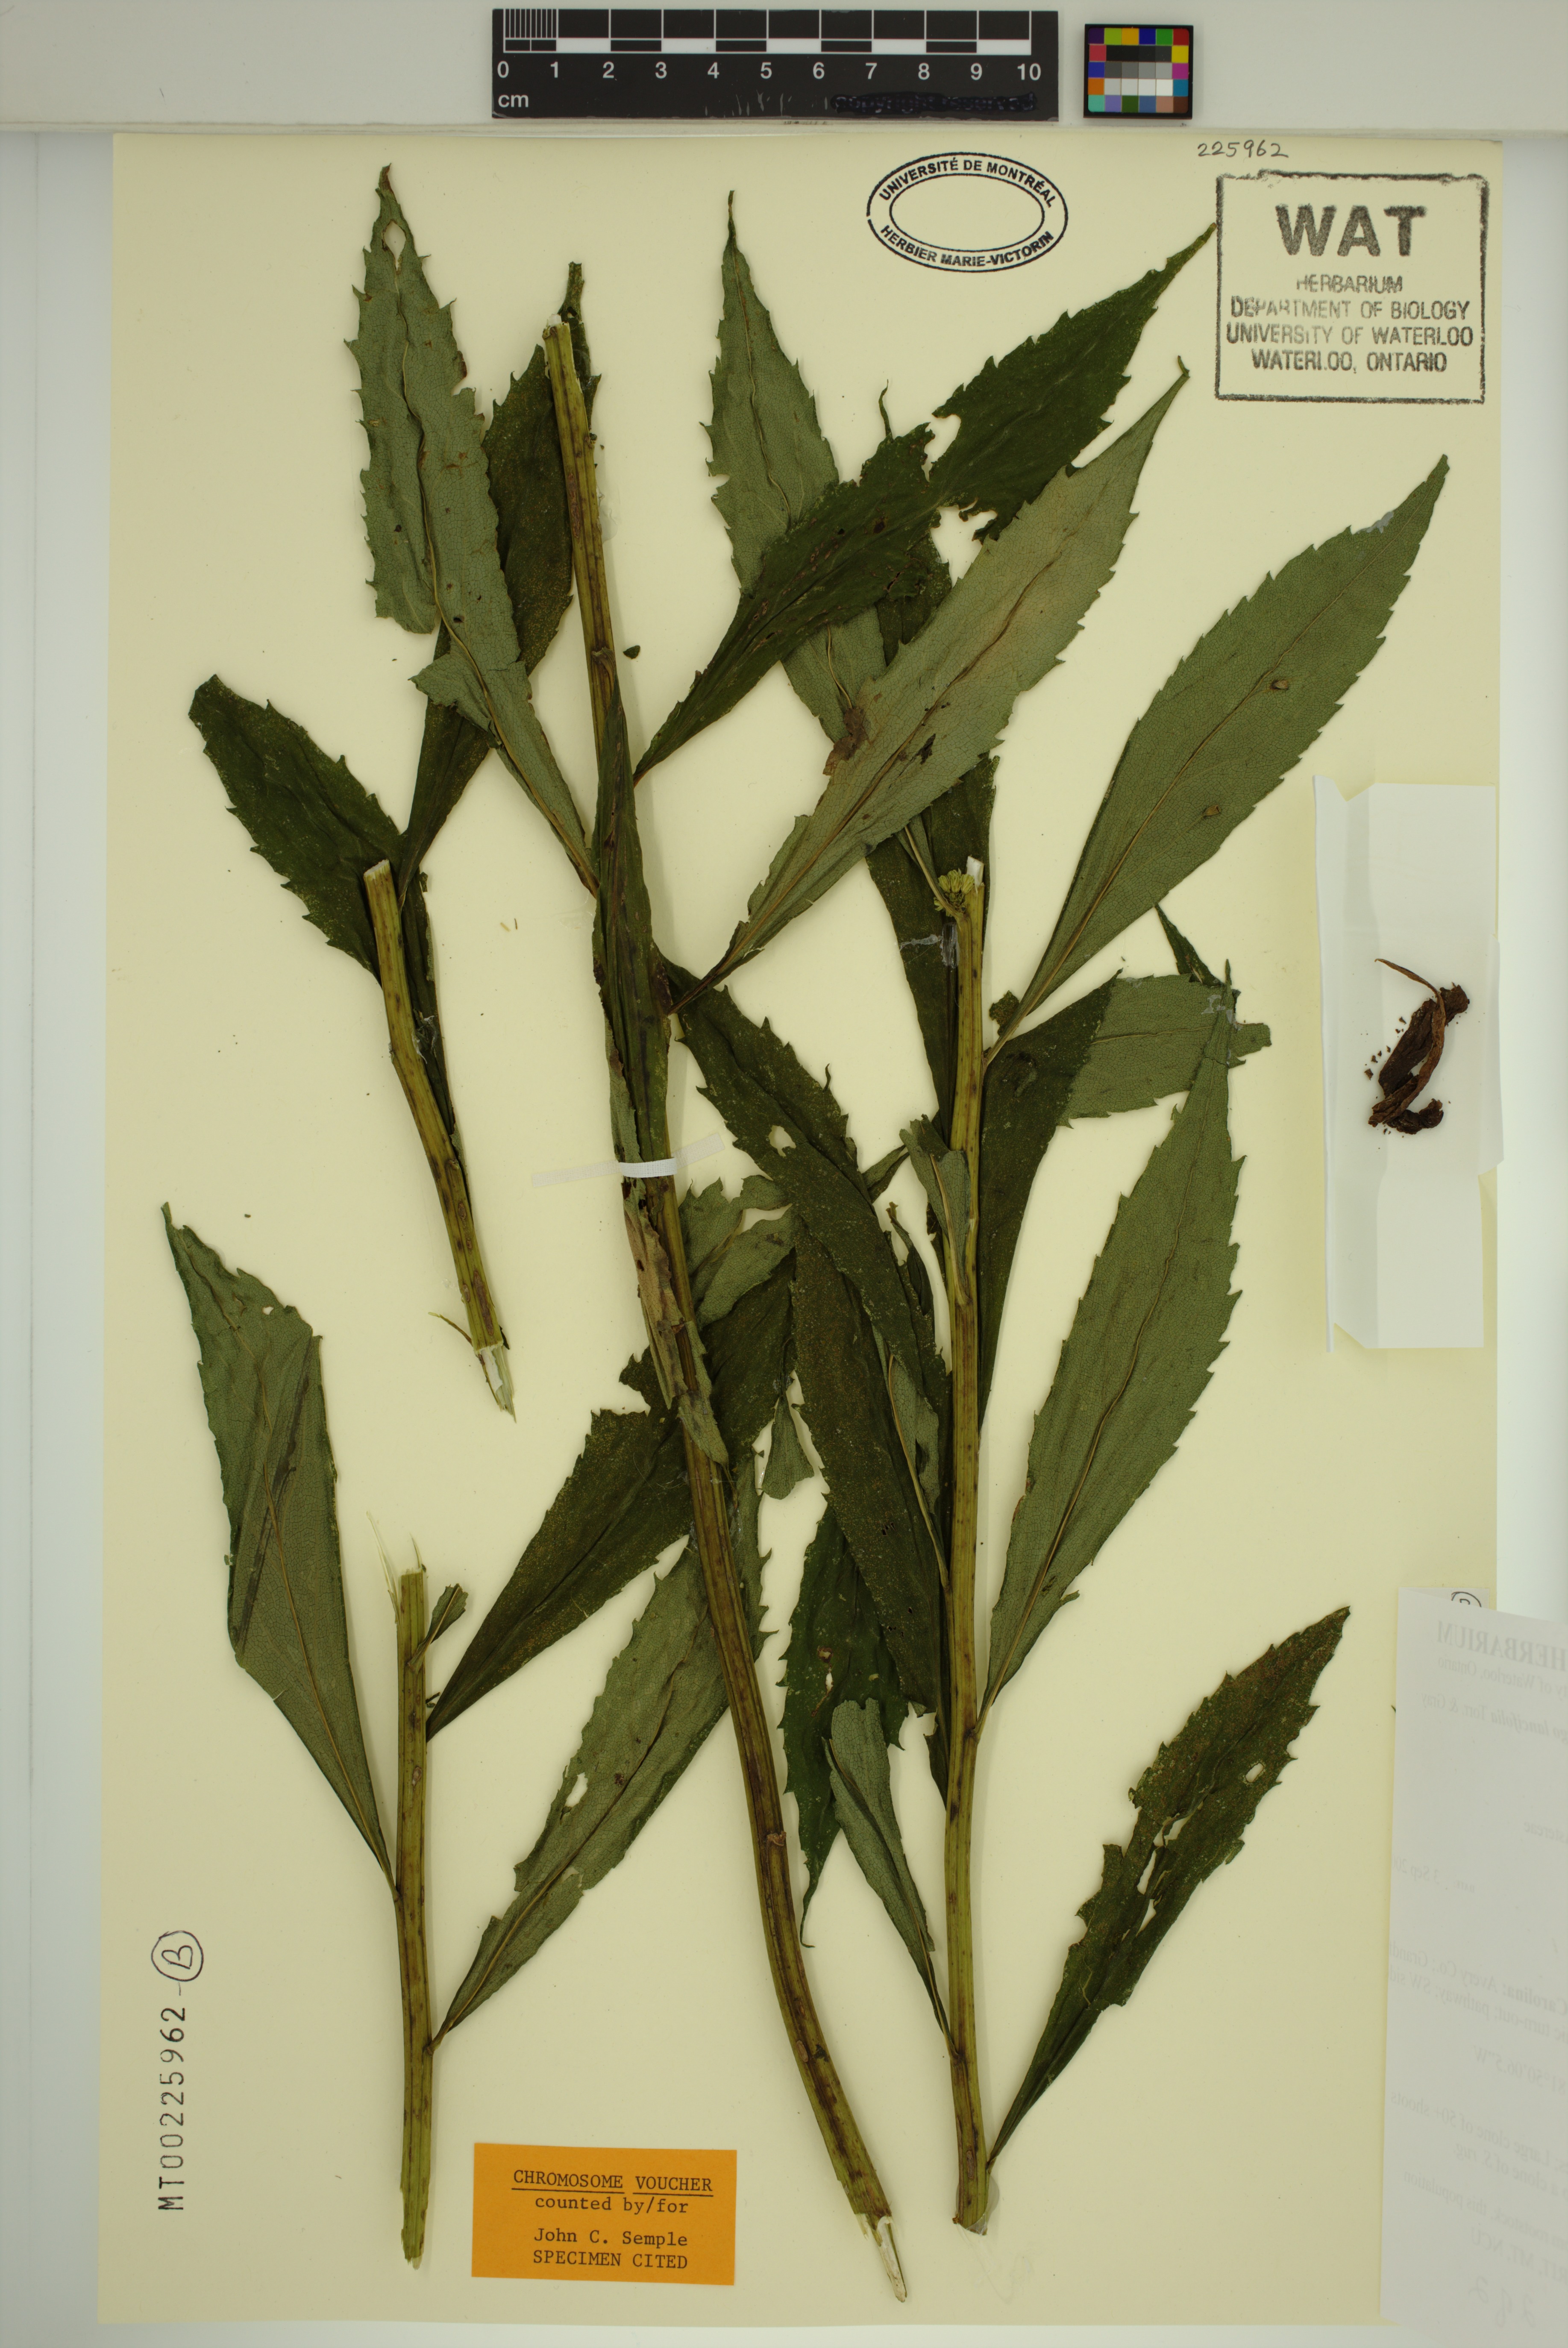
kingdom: Plantae
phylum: Tracheophyta
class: Magnoliopsida
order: Asterales
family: Asteraceae
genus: Solidago
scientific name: Solidago lancifolia
